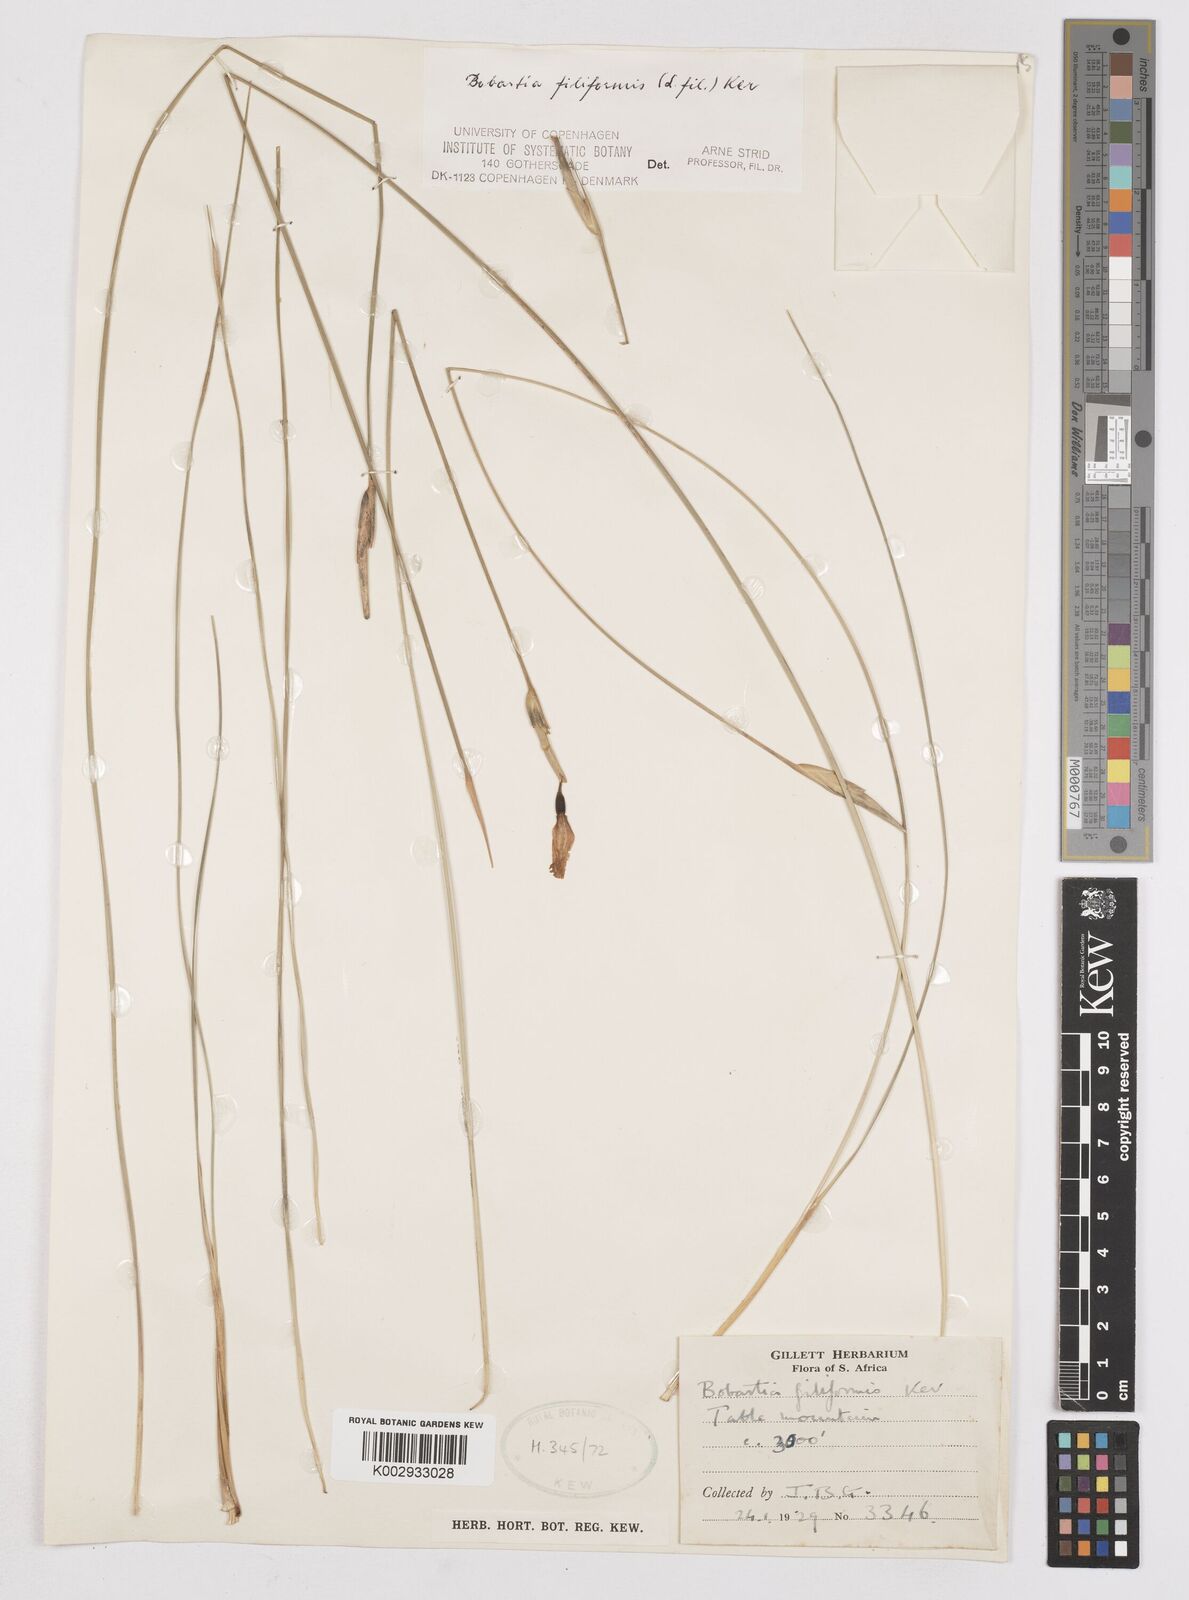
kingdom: Plantae
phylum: Tracheophyta
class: Liliopsida
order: Asparagales
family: Iridaceae
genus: Bobartia
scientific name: Bobartia filiformis
